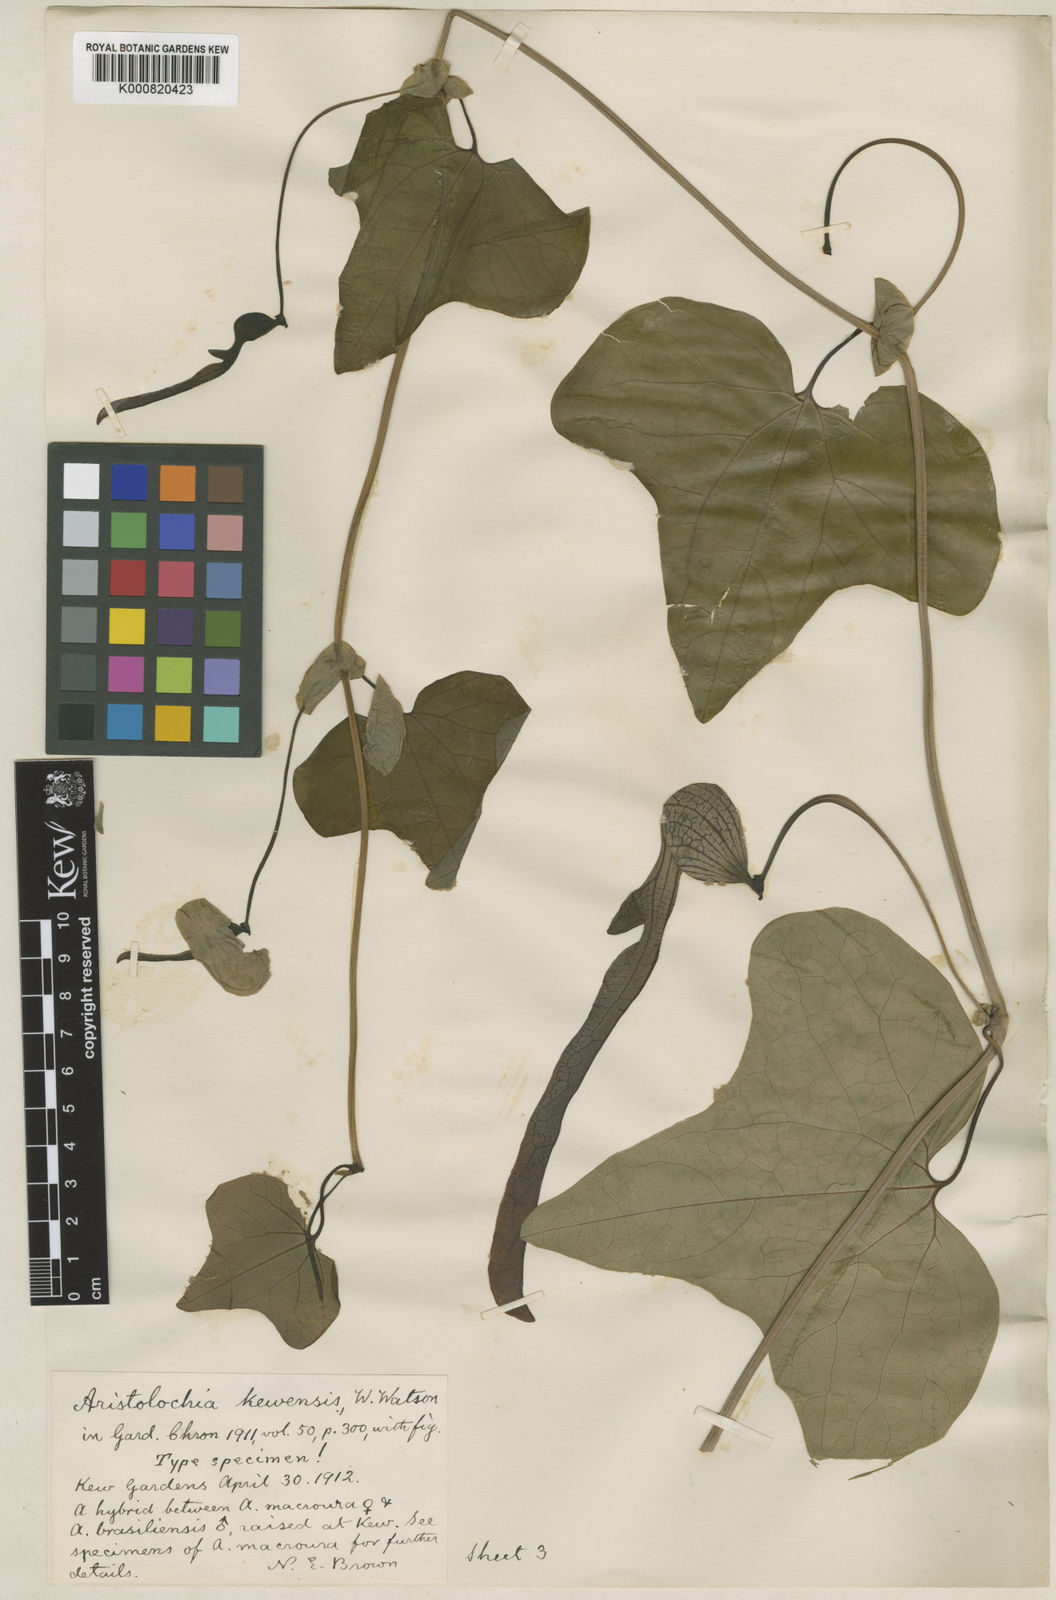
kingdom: Plantae
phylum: Tracheophyta
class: Magnoliopsida
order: Piperales
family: Aristolochiaceae
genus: Aristolochia
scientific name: Aristolochia
